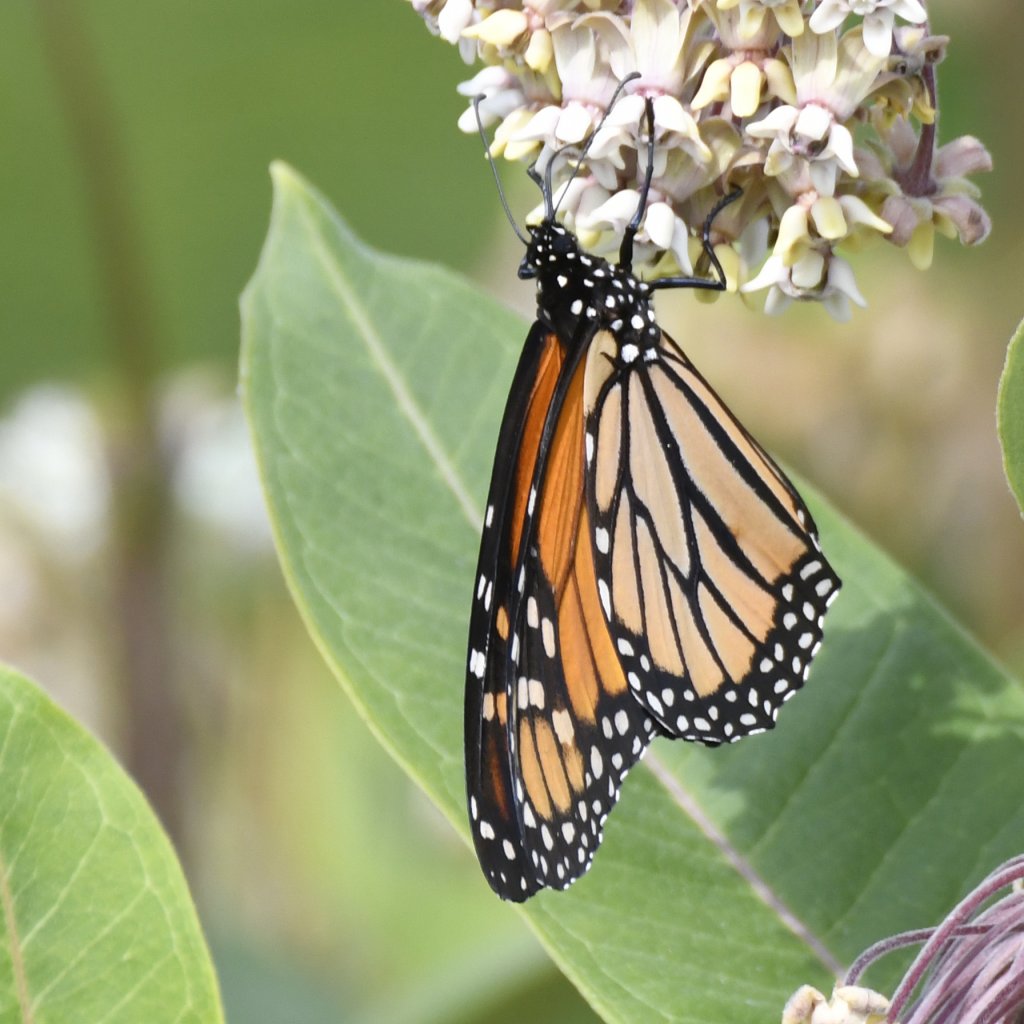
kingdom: Animalia
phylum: Arthropoda
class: Insecta
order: Lepidoptera
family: Nymphalidae
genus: Danaus
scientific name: Danaus plexippus
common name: Monarch
